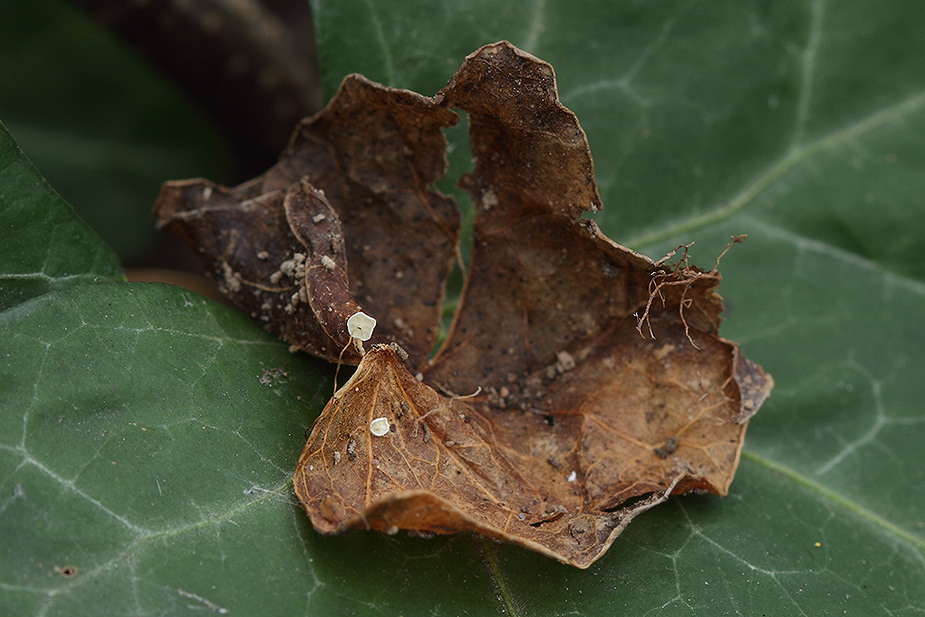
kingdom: Fungi
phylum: Basidiomycota
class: Agaricomycetes
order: Agaricales
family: Marasmiaceae
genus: Marasmius
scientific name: Marasmius epiphylloides
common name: vedbend-bruskhat
